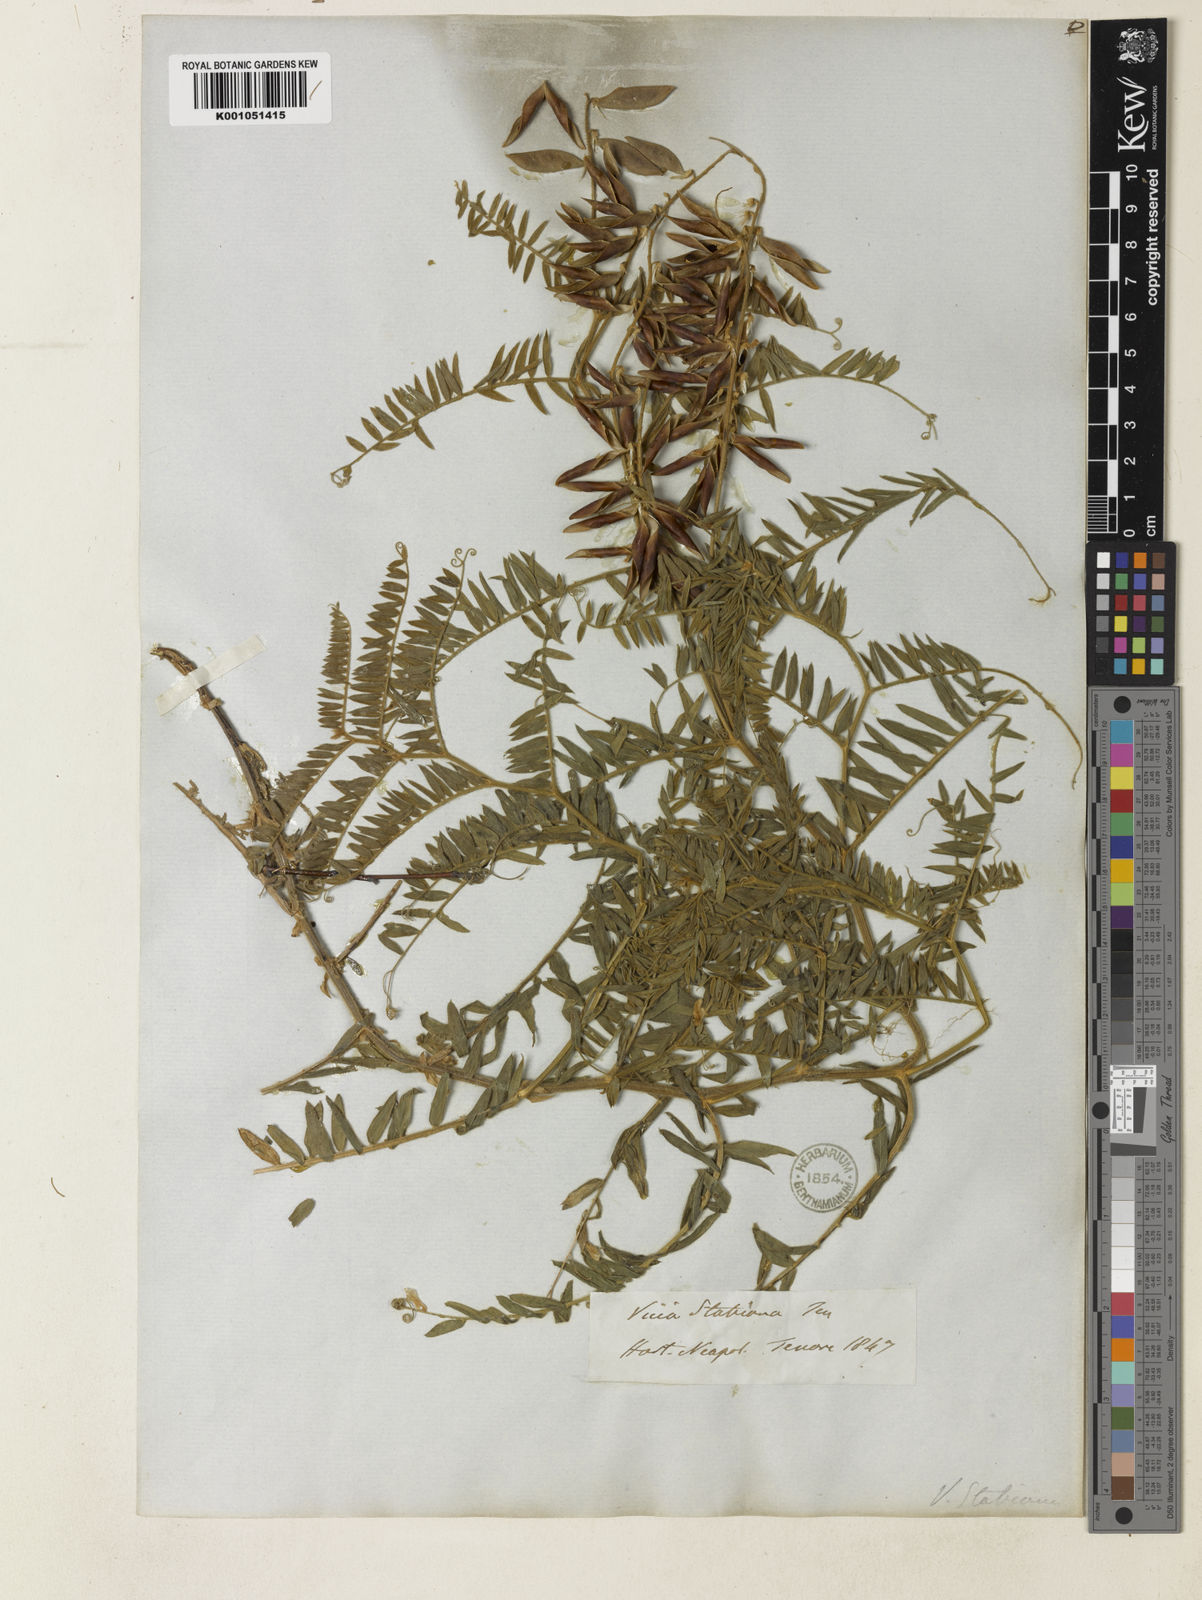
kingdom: Plantae
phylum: Tracheophyta
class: Magnoliopsida
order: Fabales
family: Fabaceae
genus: Vicia
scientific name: Vicia
